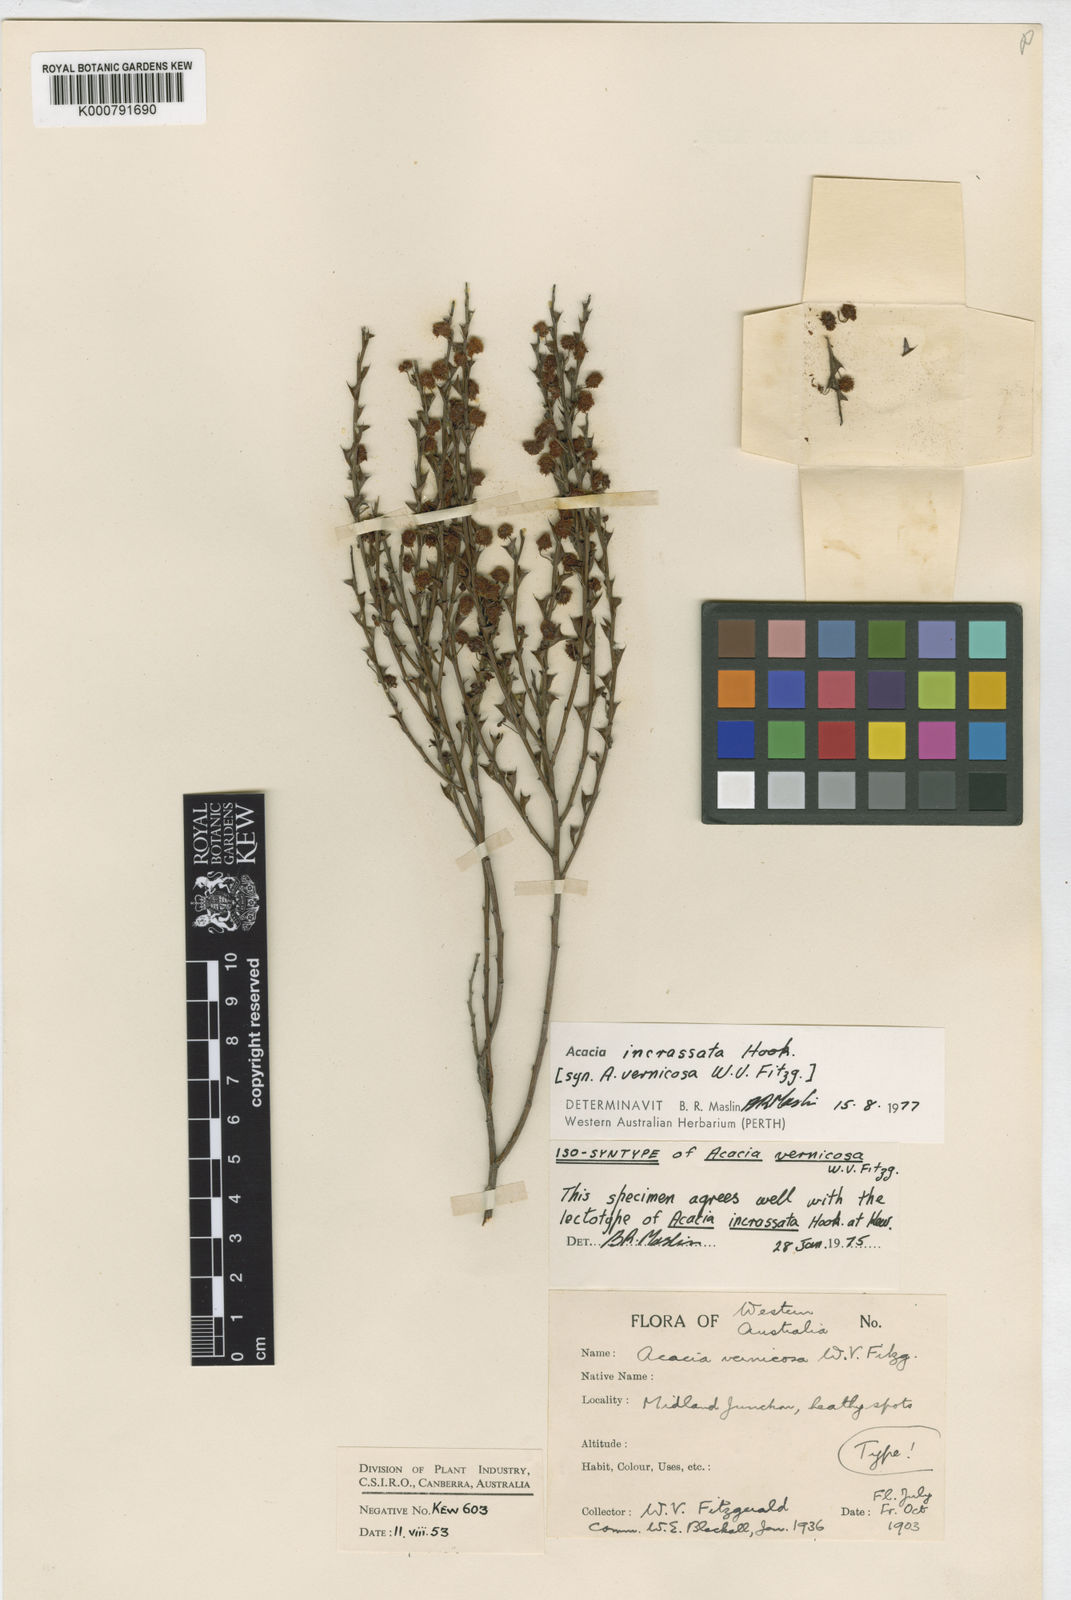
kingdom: Plantae
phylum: Tracheophyta
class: Magnoliopsida
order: Fabales
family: Fabaceae
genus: Acacia
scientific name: Acacia incrassata
